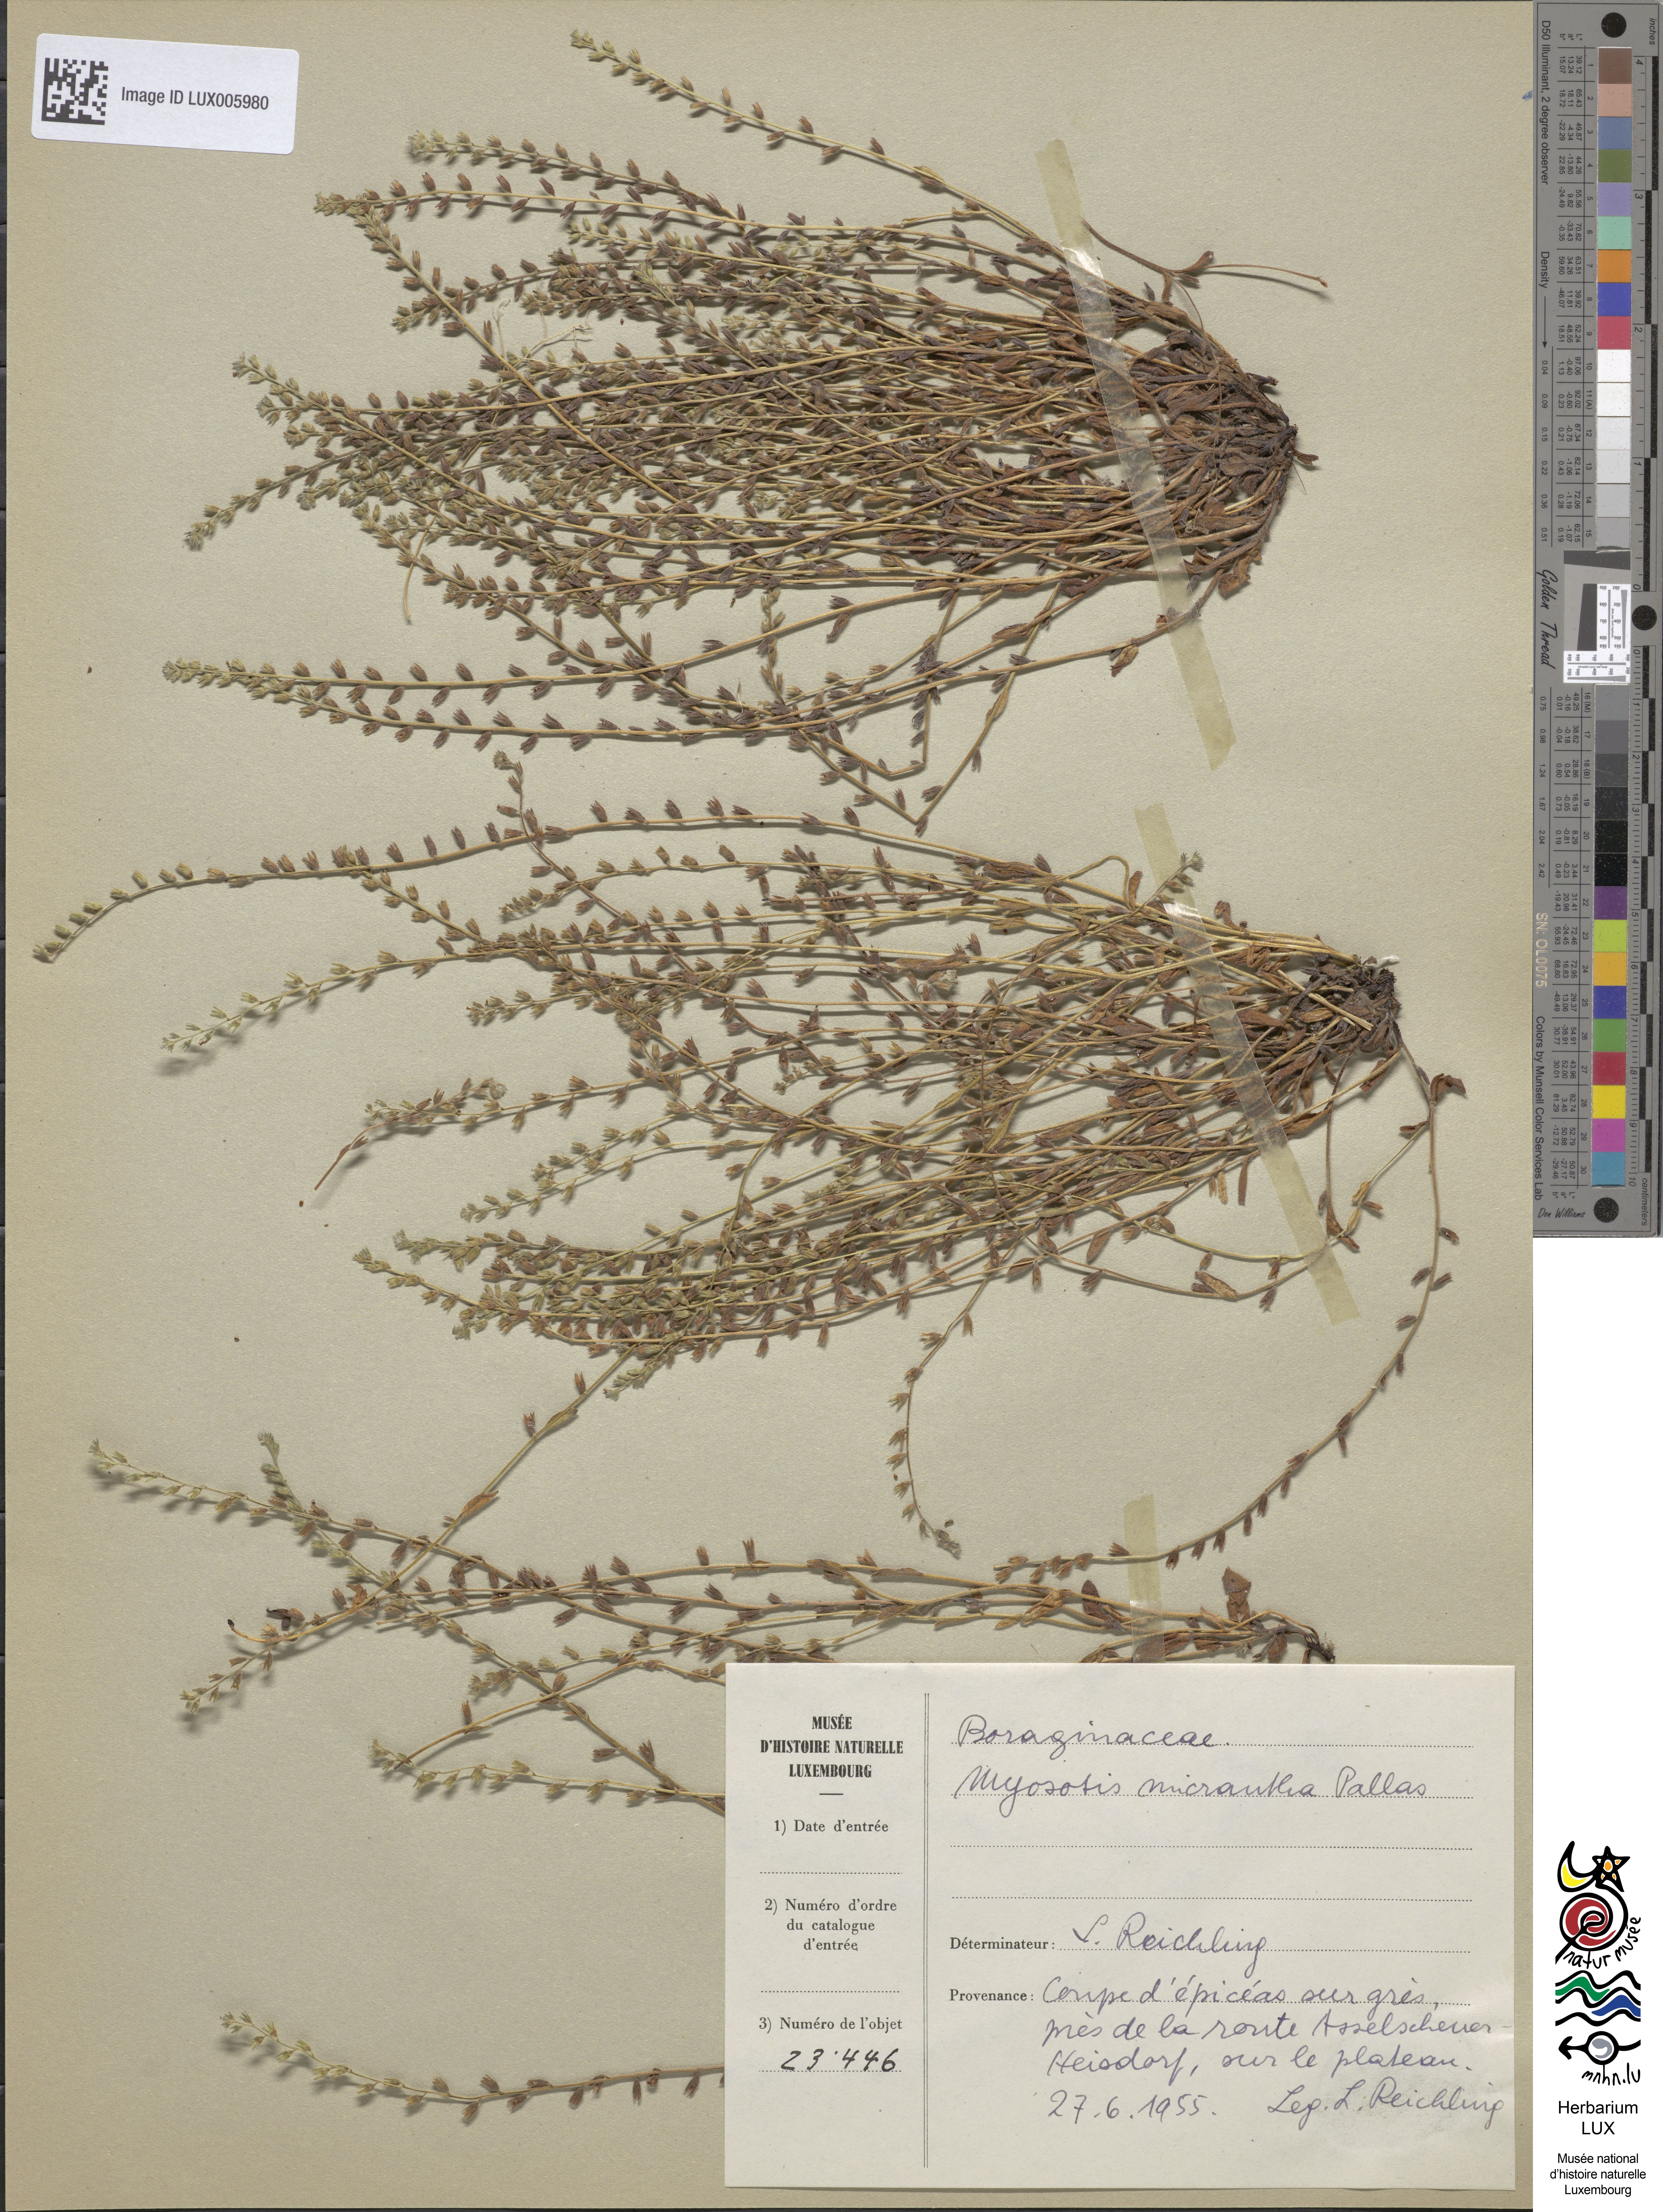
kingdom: Plantae
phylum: Tracheophyta
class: Magnoliopsida
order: Boraginales
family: Boraginaceae
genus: Myosotis
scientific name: Myosotis stricta
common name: Strict forget-me-not
